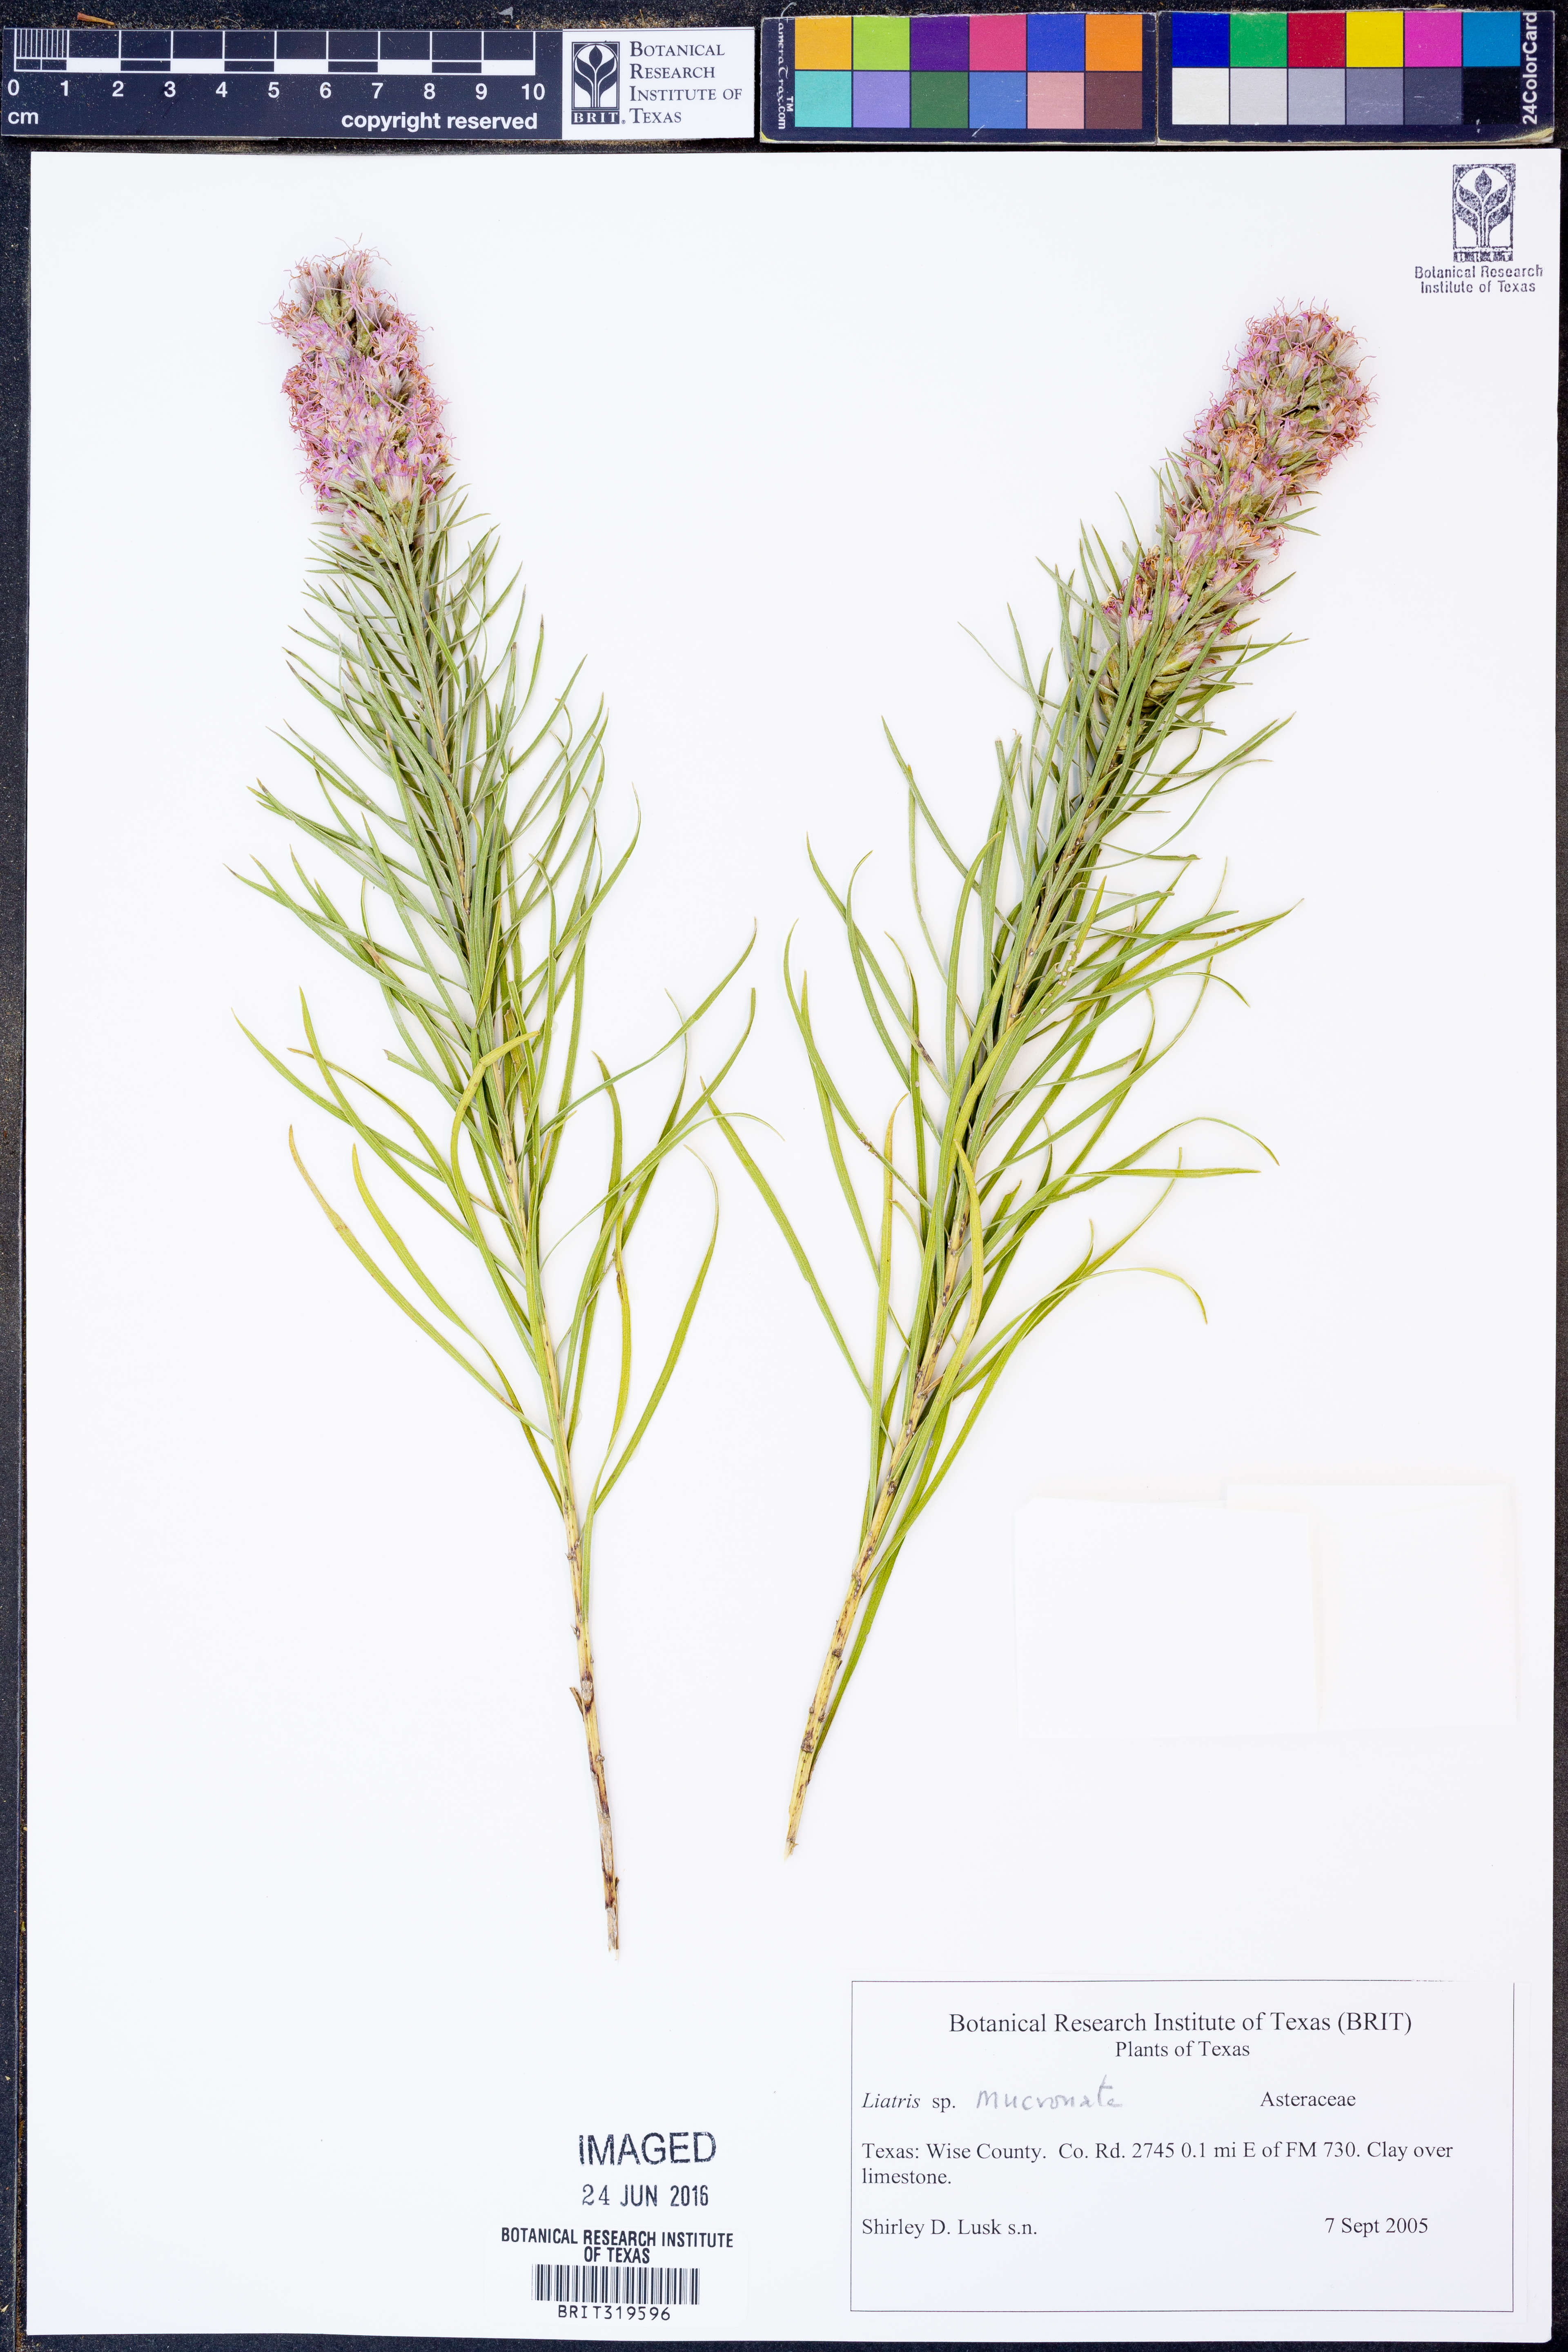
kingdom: Plantae
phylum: Tracheophyta
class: Magnoliopsida
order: Asterales
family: Asteraceae
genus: Liatris
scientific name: Liatris mucronata
